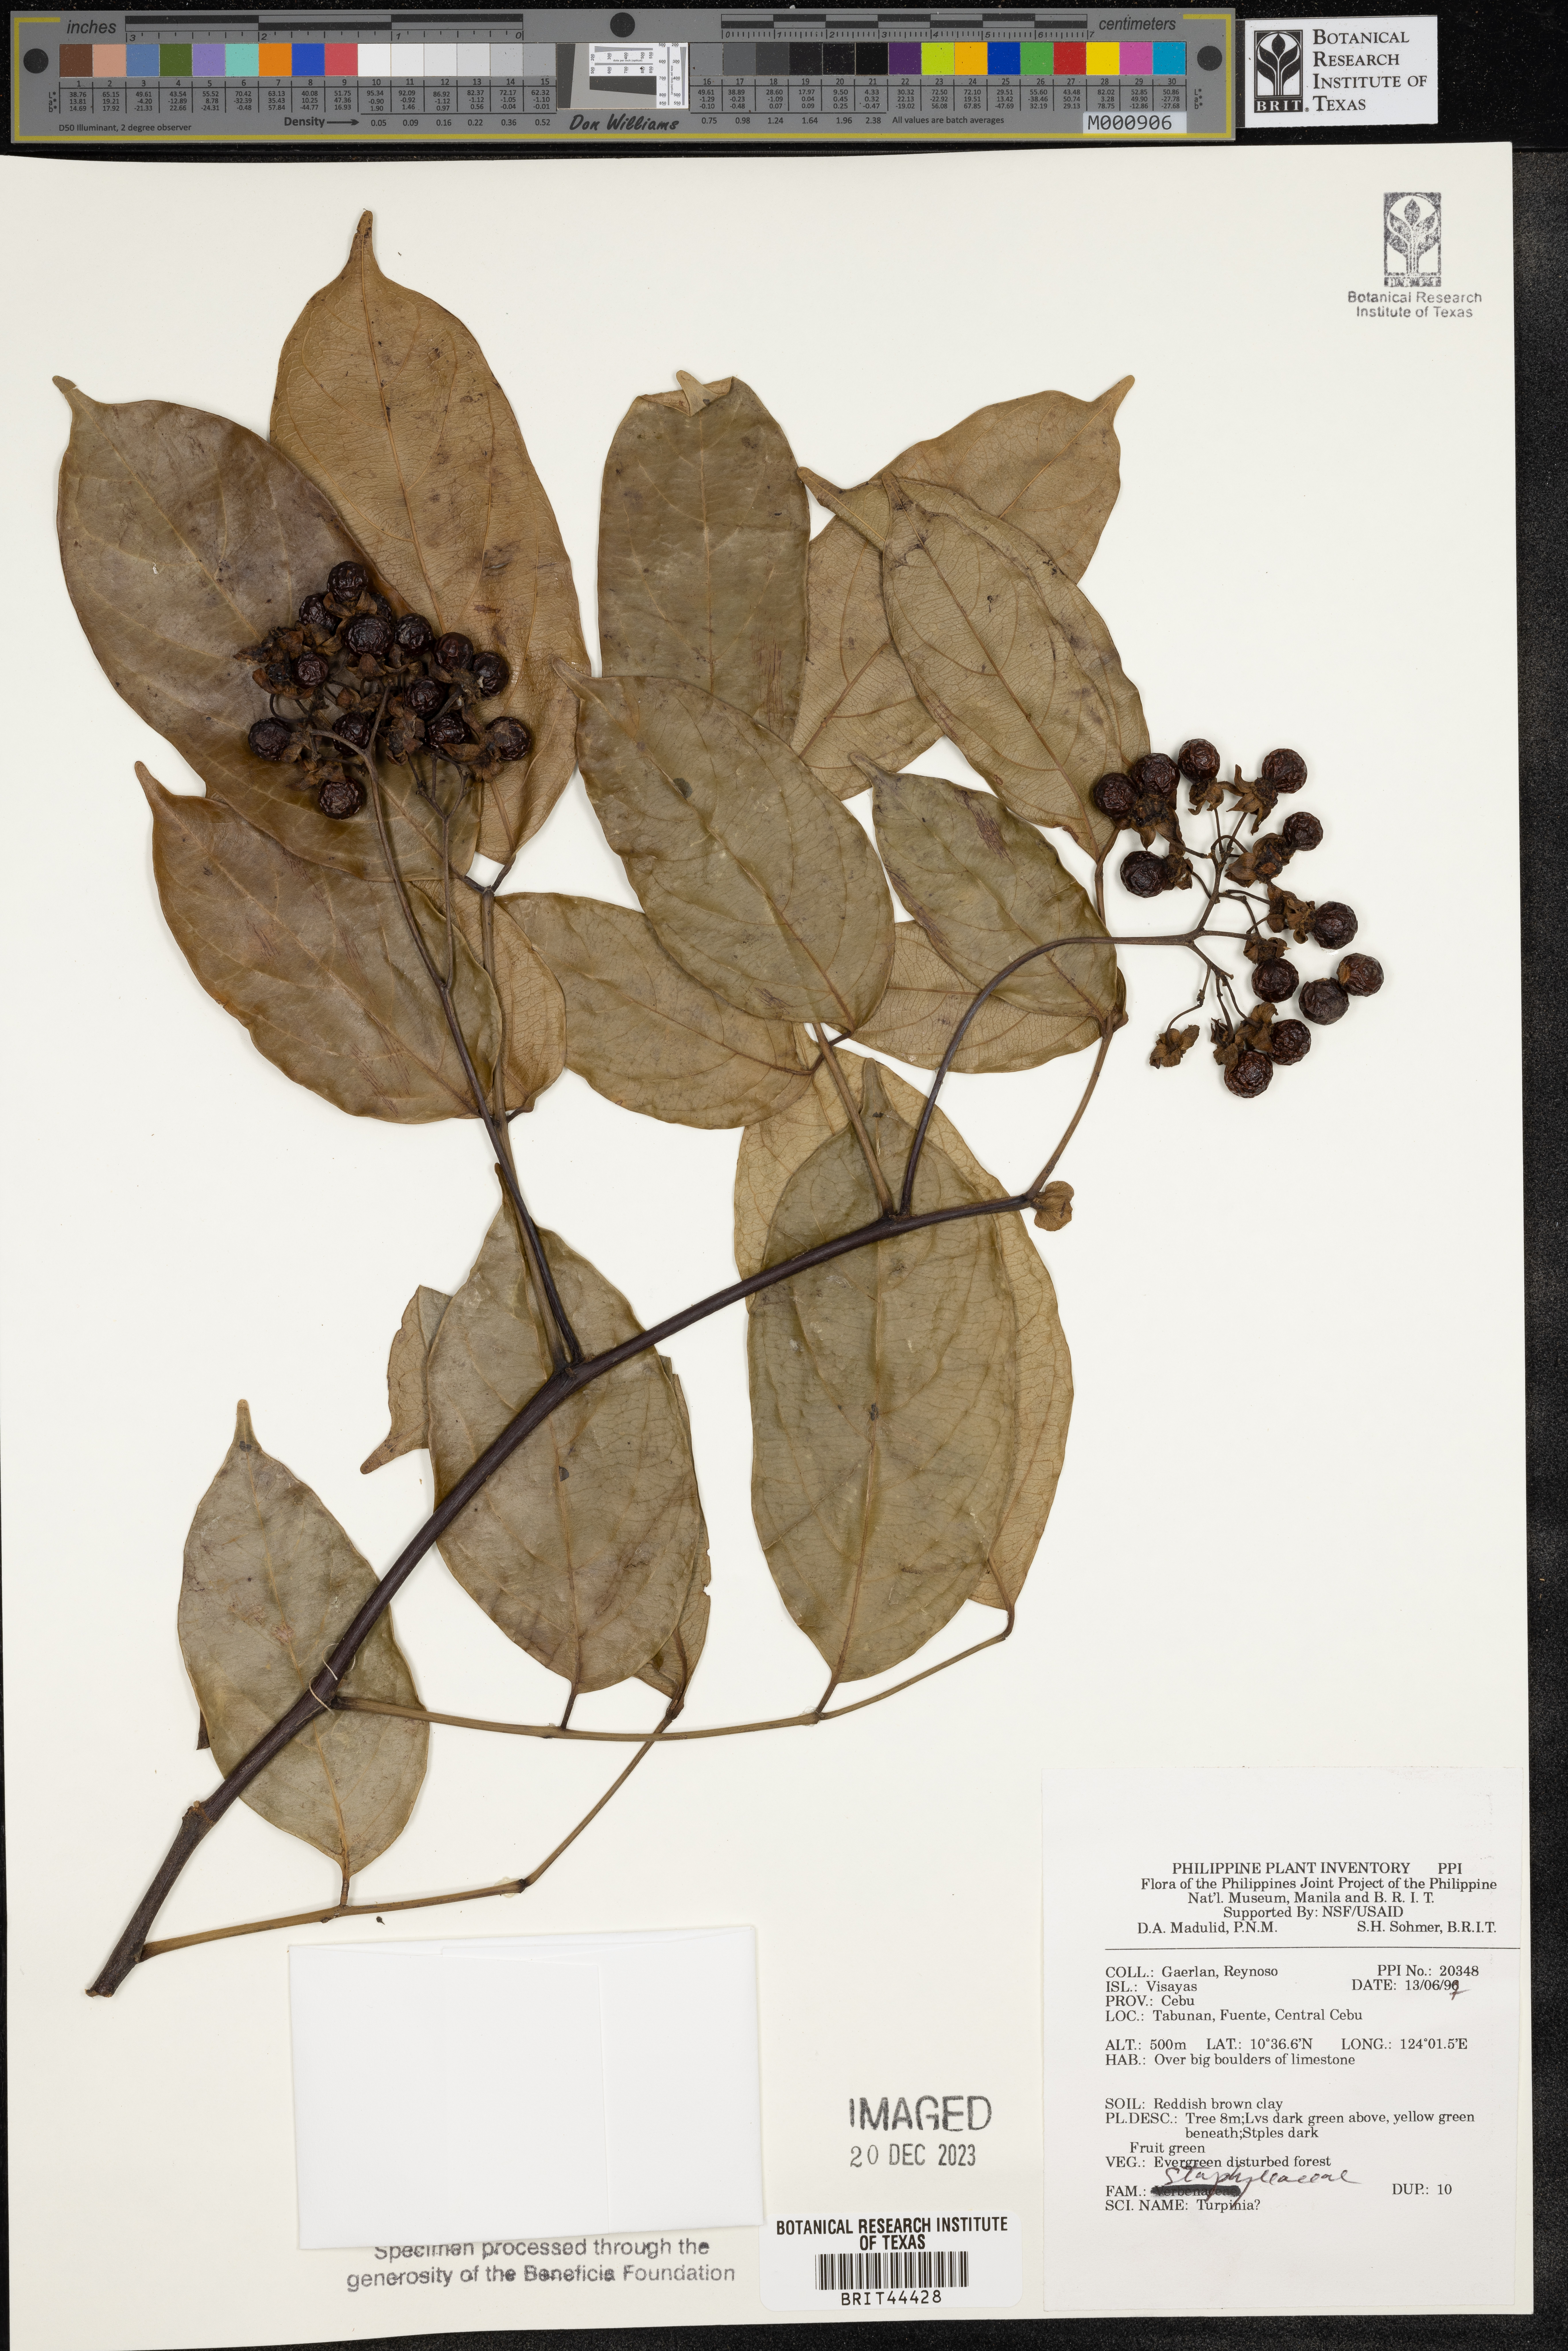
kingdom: Plantae
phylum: Tracheophyta
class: Magnoliopsida
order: Crossosomatales
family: Staphyleaceae
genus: Turpinia
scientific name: Turpinia
